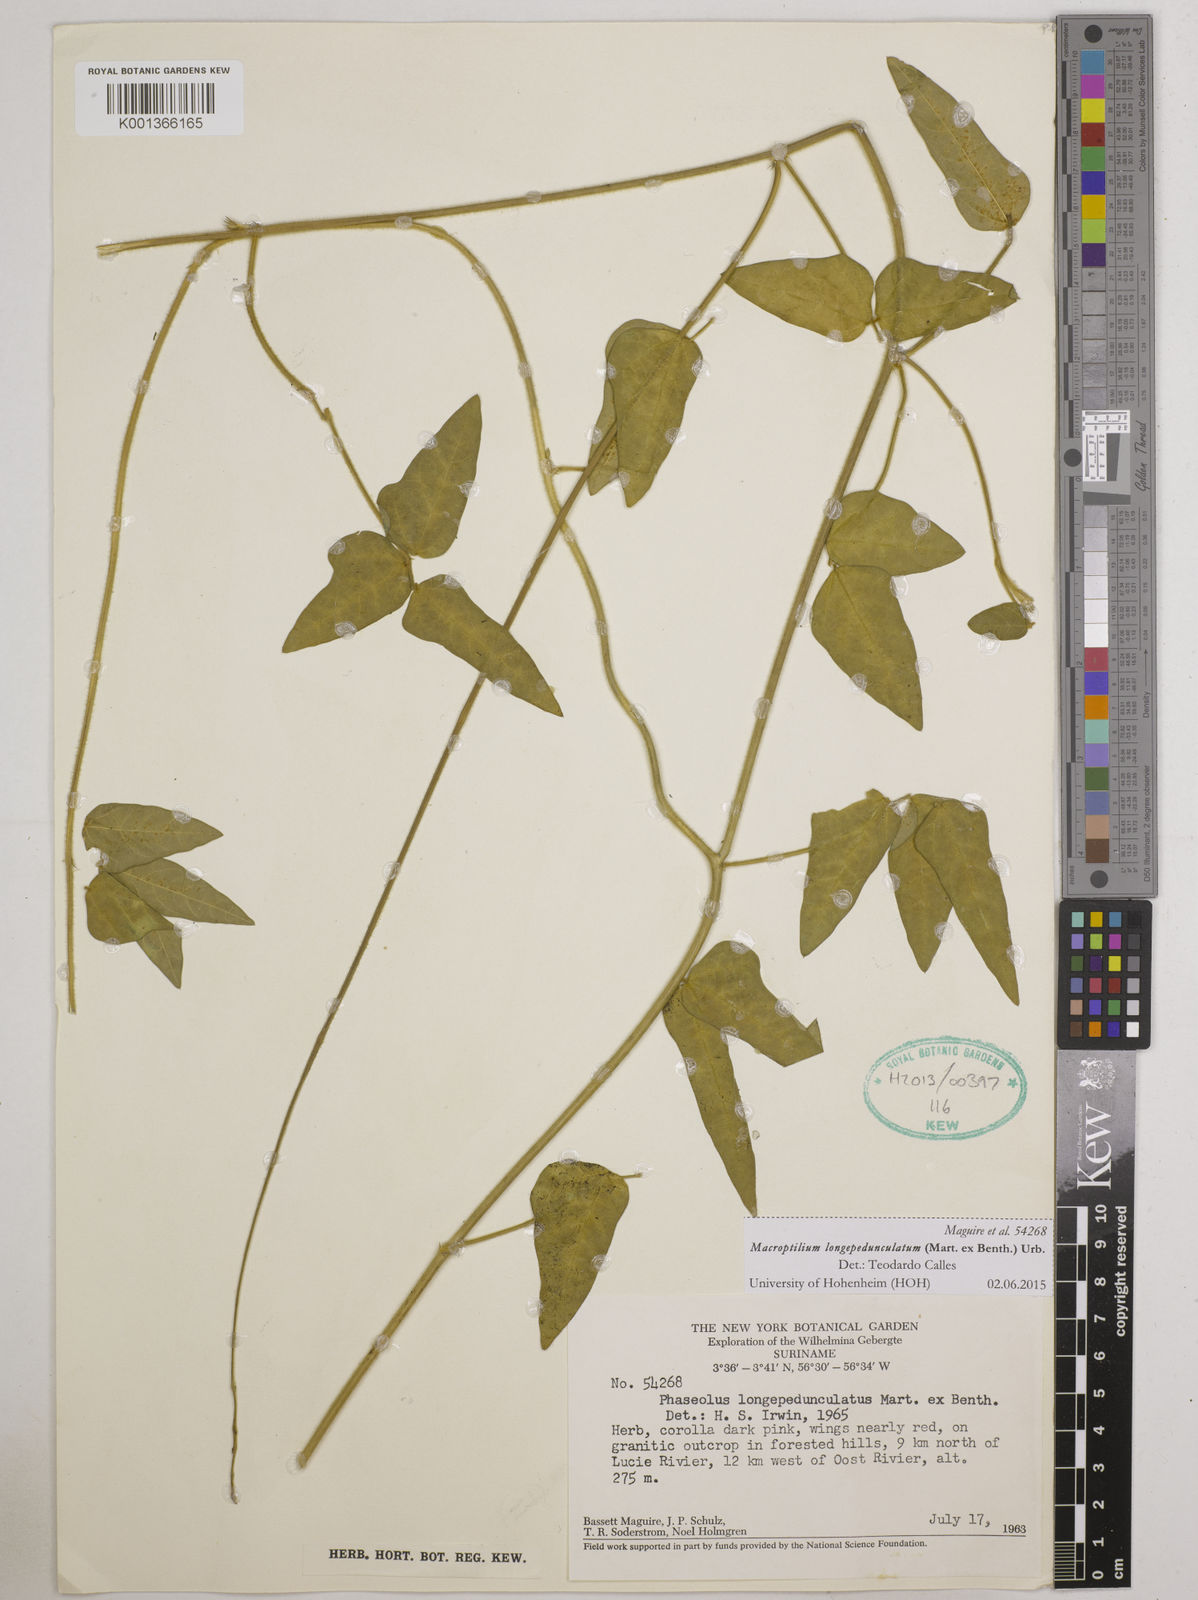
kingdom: Plantae
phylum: Tracheophyta
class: Magnoliopsida
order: Fabales
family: Fabaceae
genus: Macroptilium
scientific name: Macroptilium longepedunculatum
